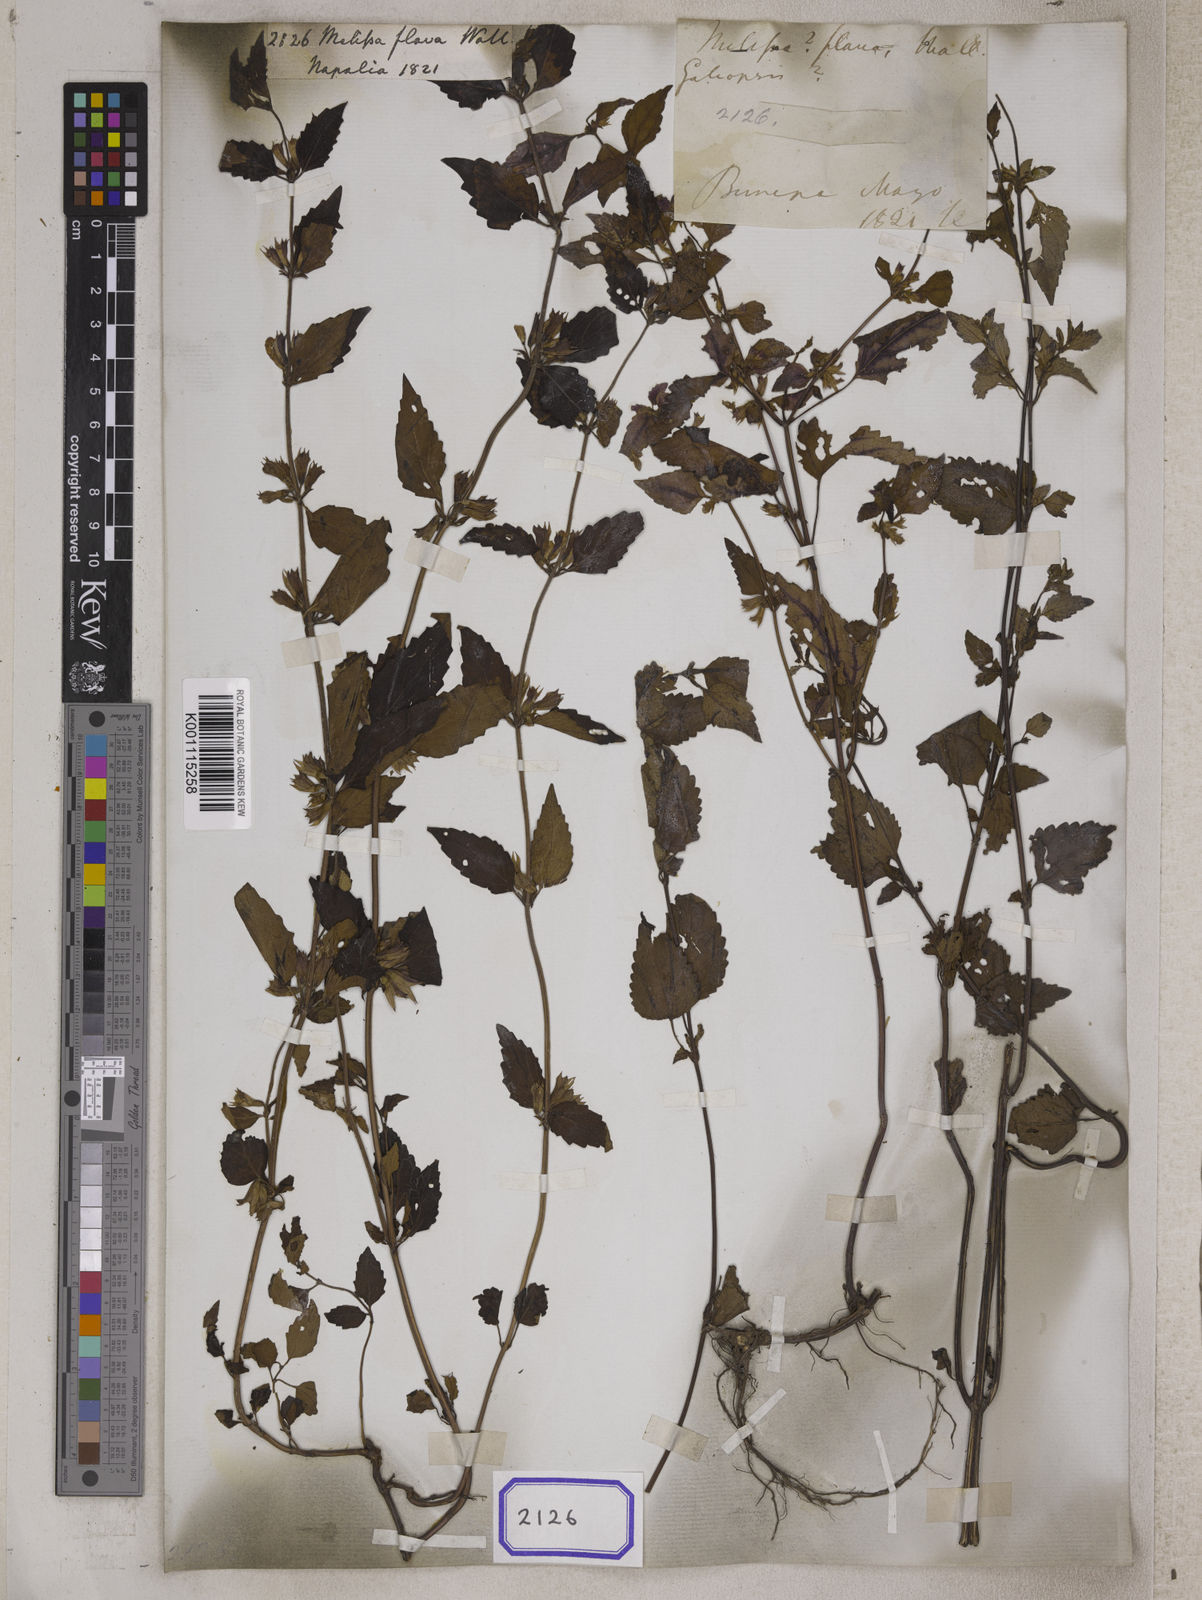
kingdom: Plantae
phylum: Tracheophyta
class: Magnoliopsida
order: Lamiales
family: Lamiaceae
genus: Melissa
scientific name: Melissa flava
